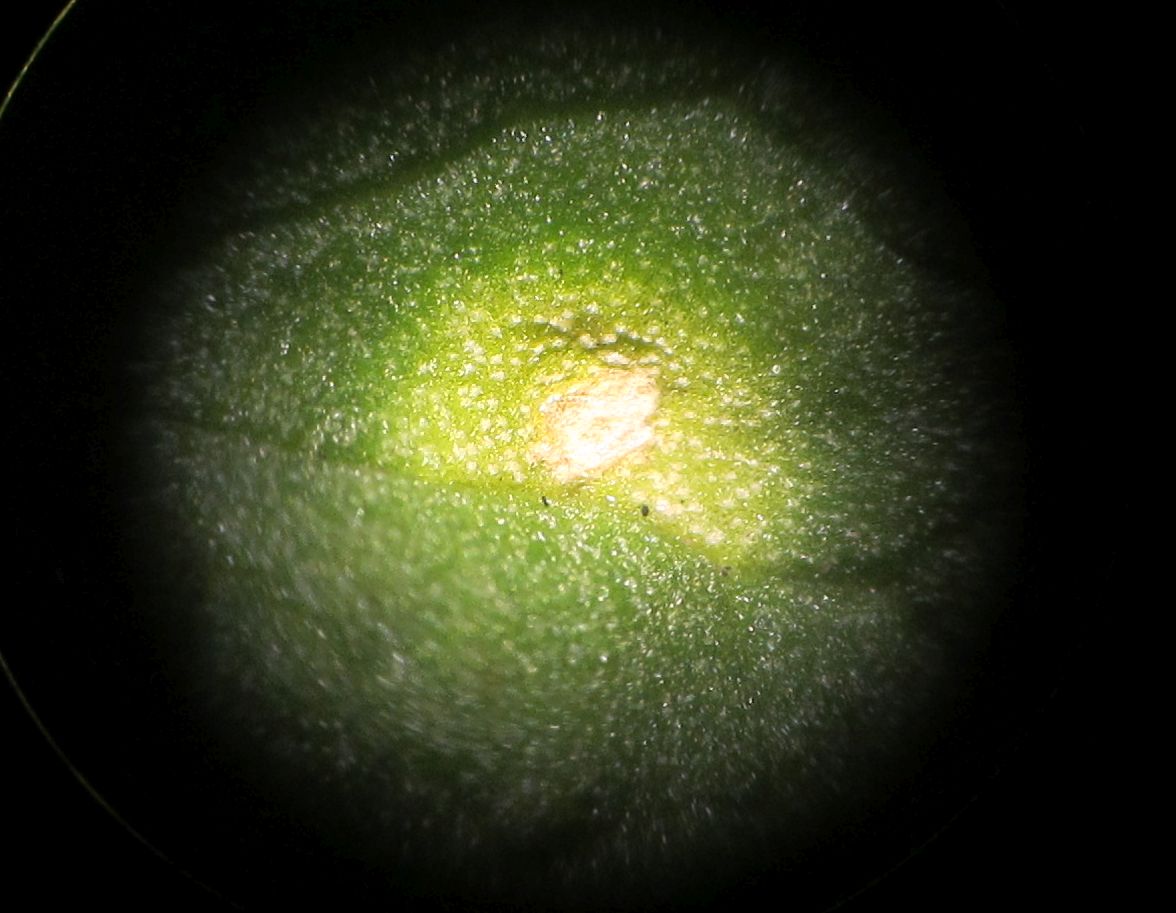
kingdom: Fungi
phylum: Basidiomycota
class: Exobasidiomycetes
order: Entylomatales
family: Entylomataceae
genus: Entyloma
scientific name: Entyloma ficariae
